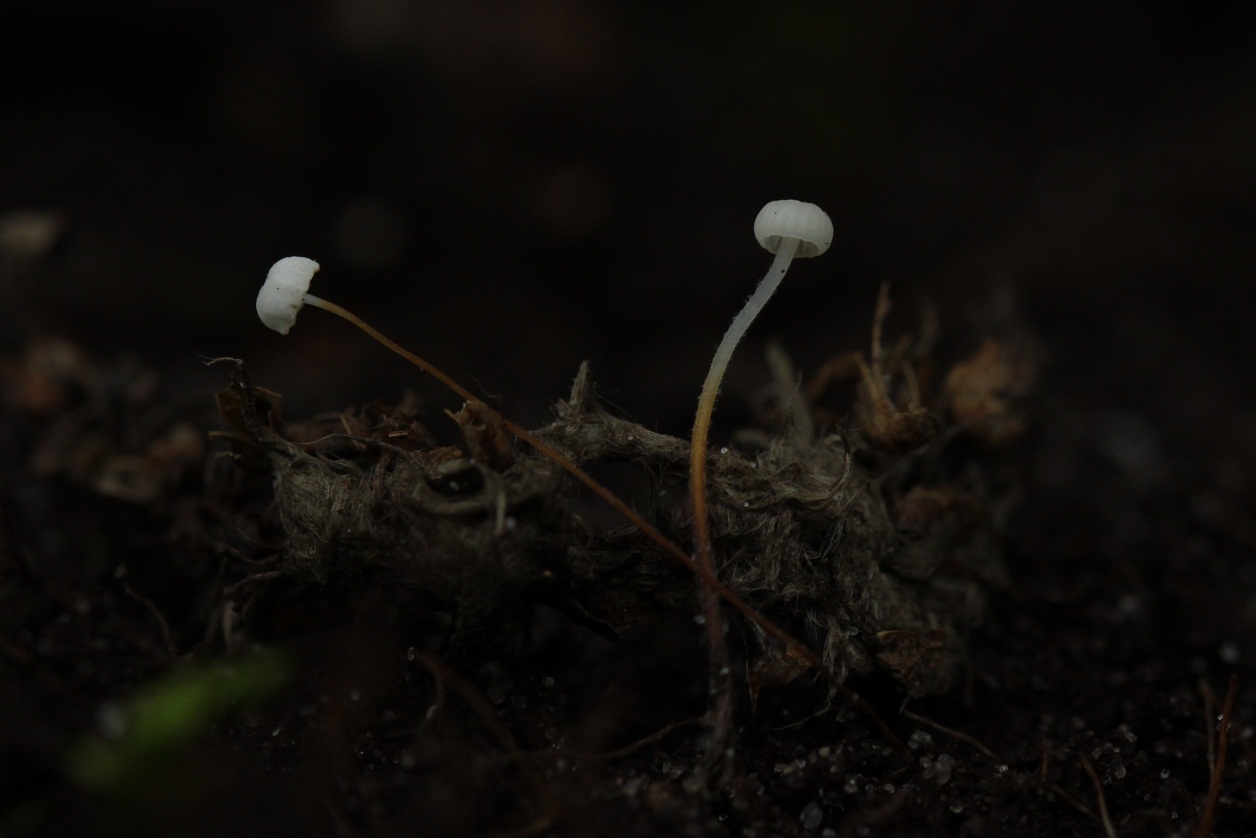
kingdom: Fungi
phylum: Basidiomycota
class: Agaricomycetes
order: Agaricales
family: Physalacriaceae
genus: Rhizomarasmius
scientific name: Rhizomarasmius setosus
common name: bøgeblads-bruskhat
